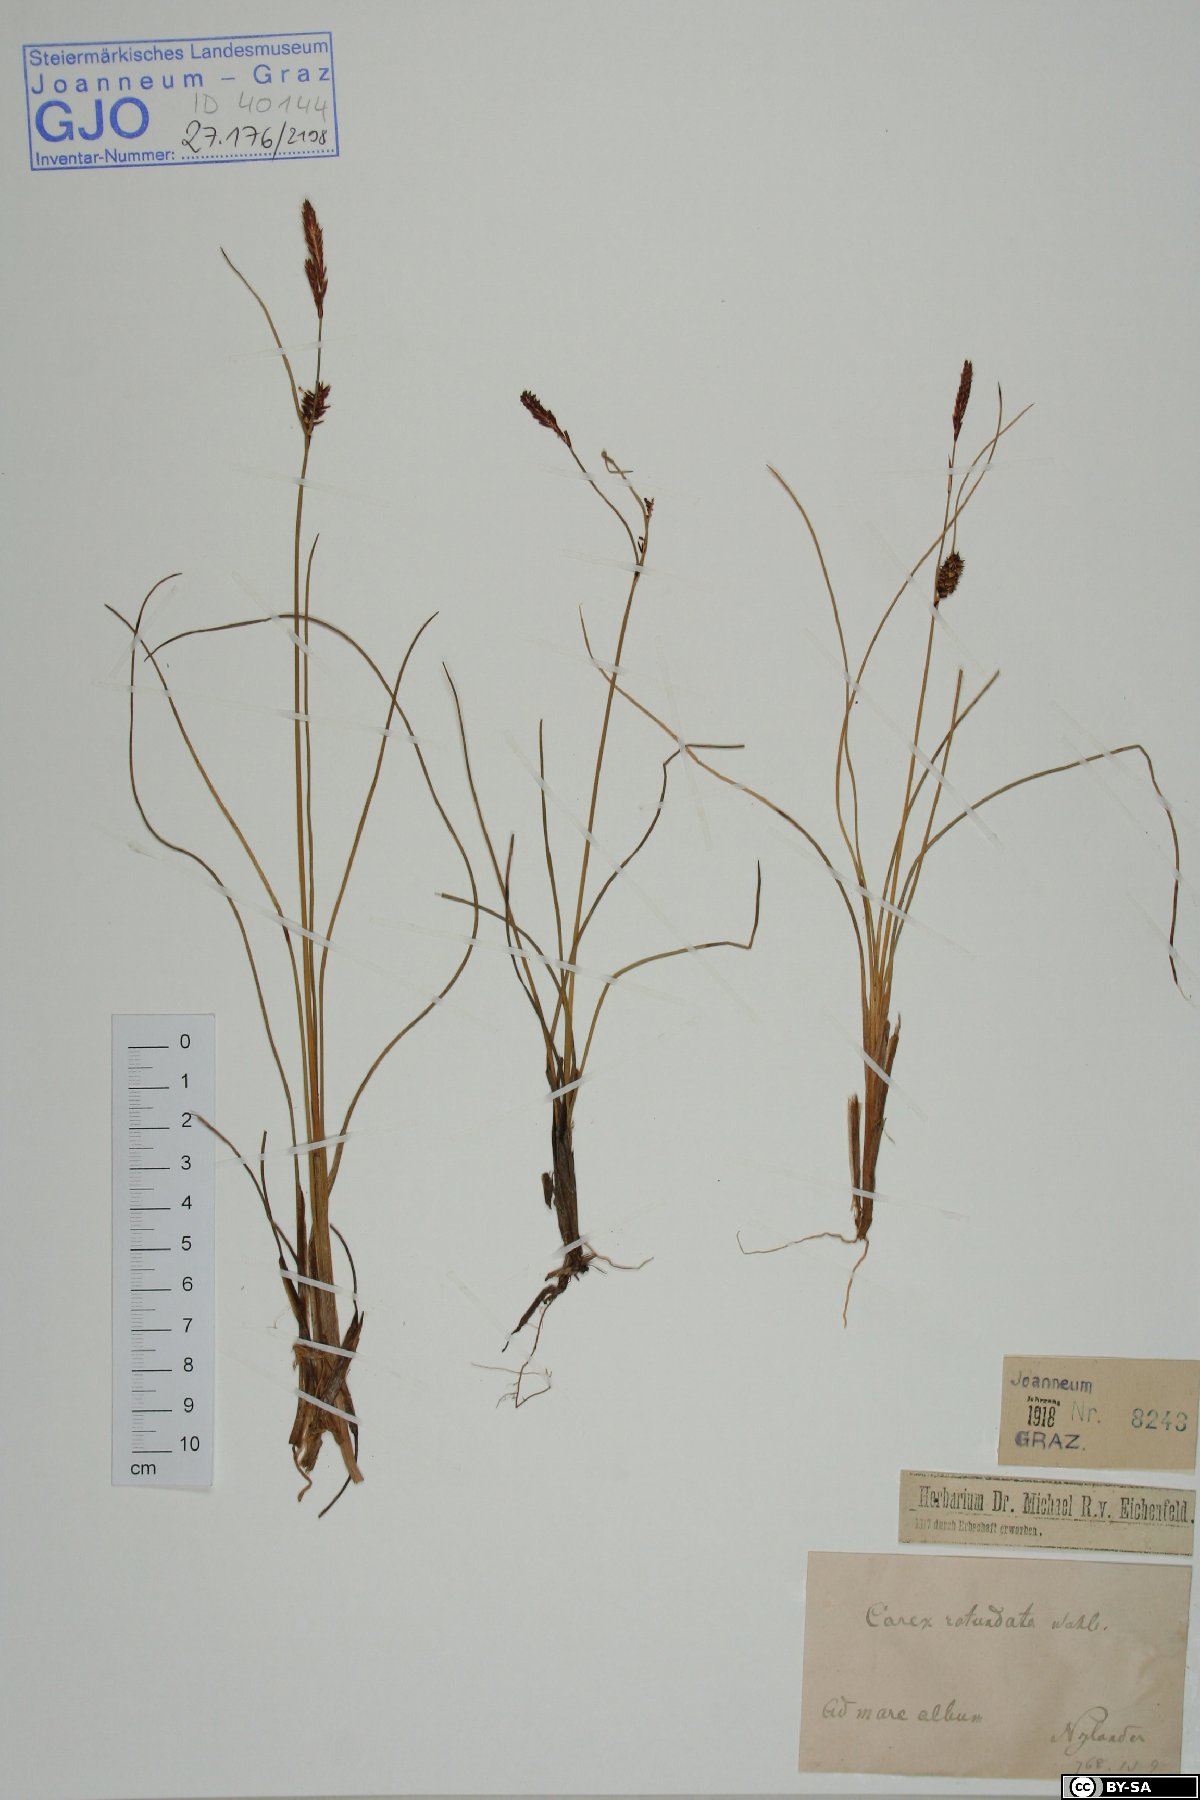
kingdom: Plantae
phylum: Tracheophyta
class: Liliopsida
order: Poales
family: Cyperaceae
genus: Carex
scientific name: Carex rotundata
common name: Round-fruited sedge
